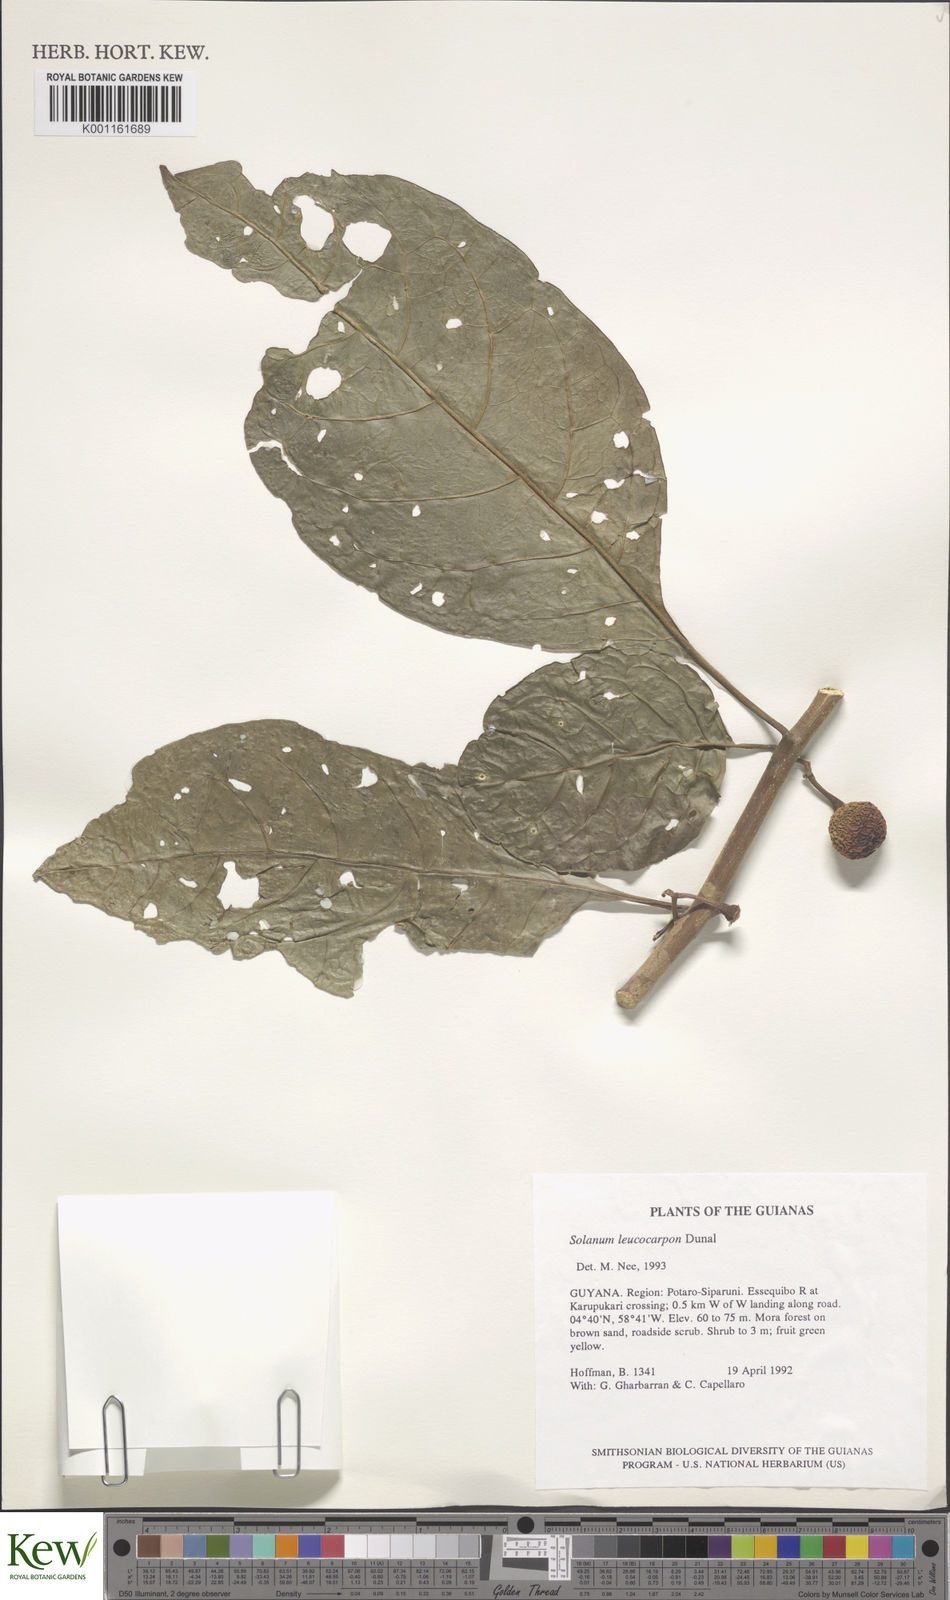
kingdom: Plantae
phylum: Tracheophyta
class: Magnoliopsida
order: Solanales
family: Solanaceae
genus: Solanum
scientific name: Solanum leucocarpon
